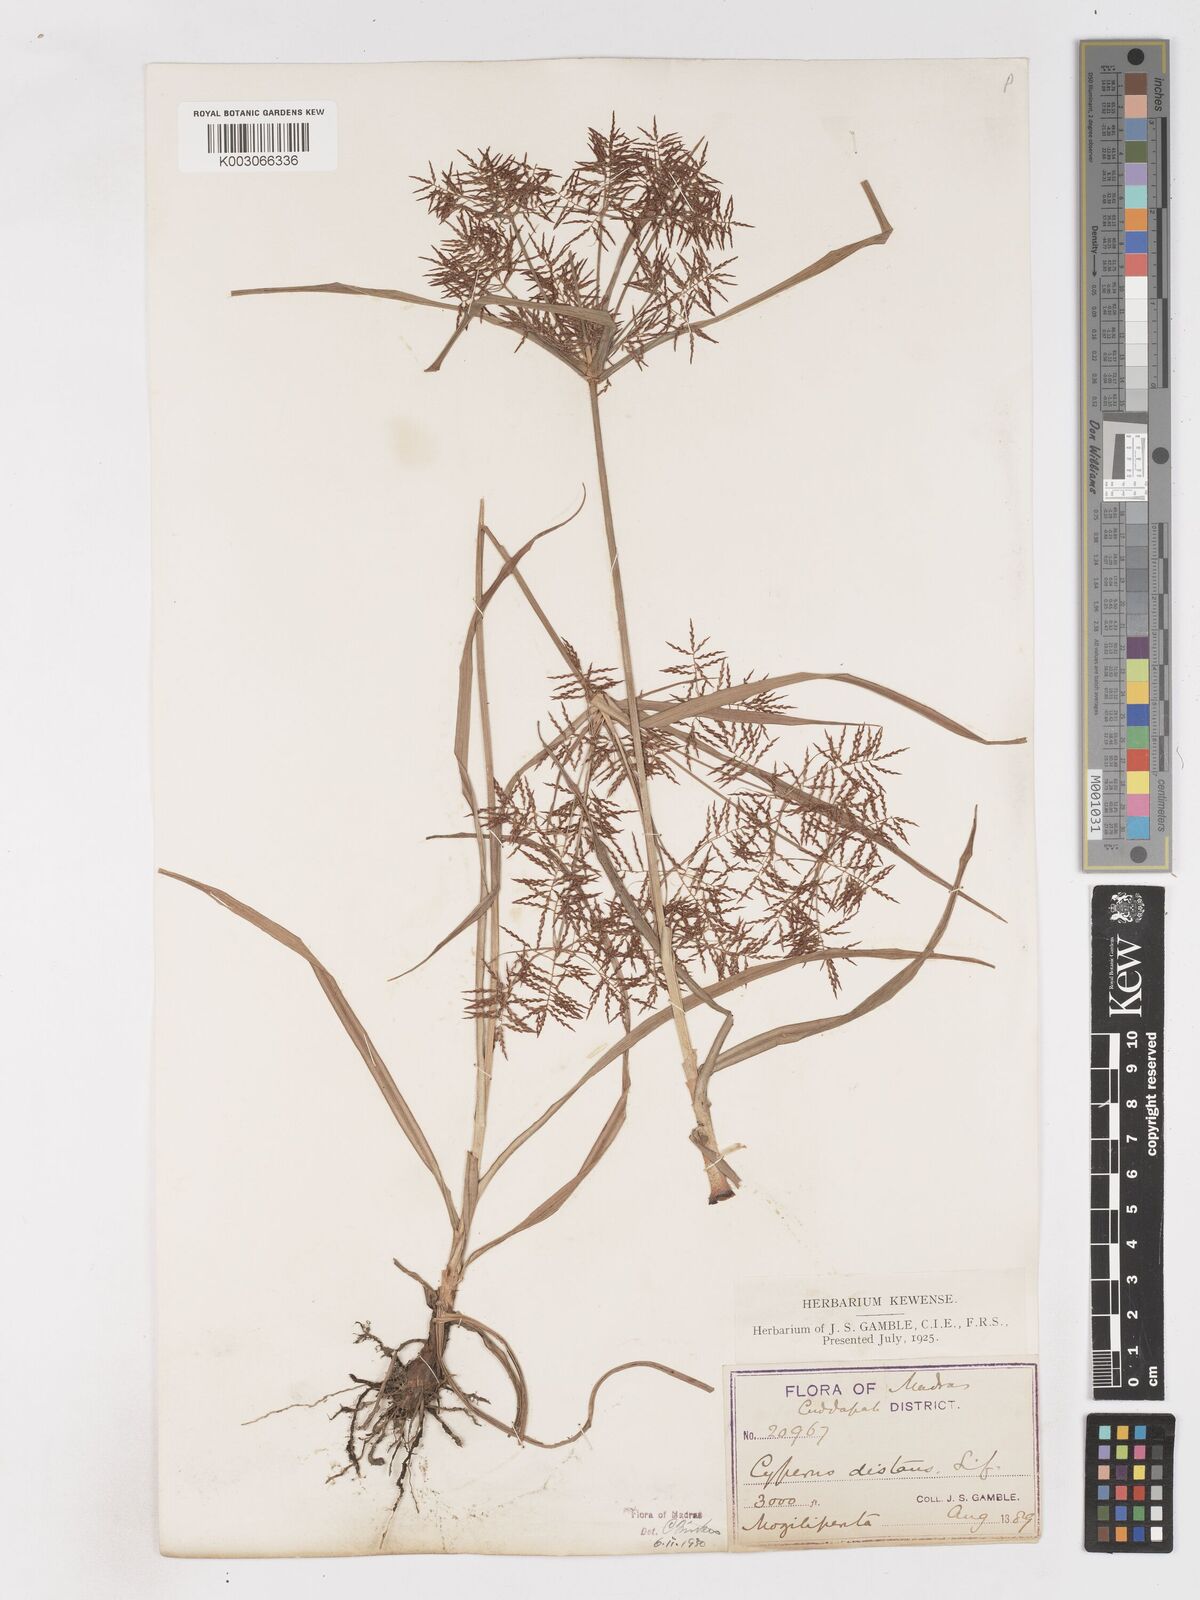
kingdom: Plantae
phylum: Tracheophyta
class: Liliopsida
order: Poales
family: Cyperaceae
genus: Cyperus
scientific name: Cyperus distans
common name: Slender cyperus
